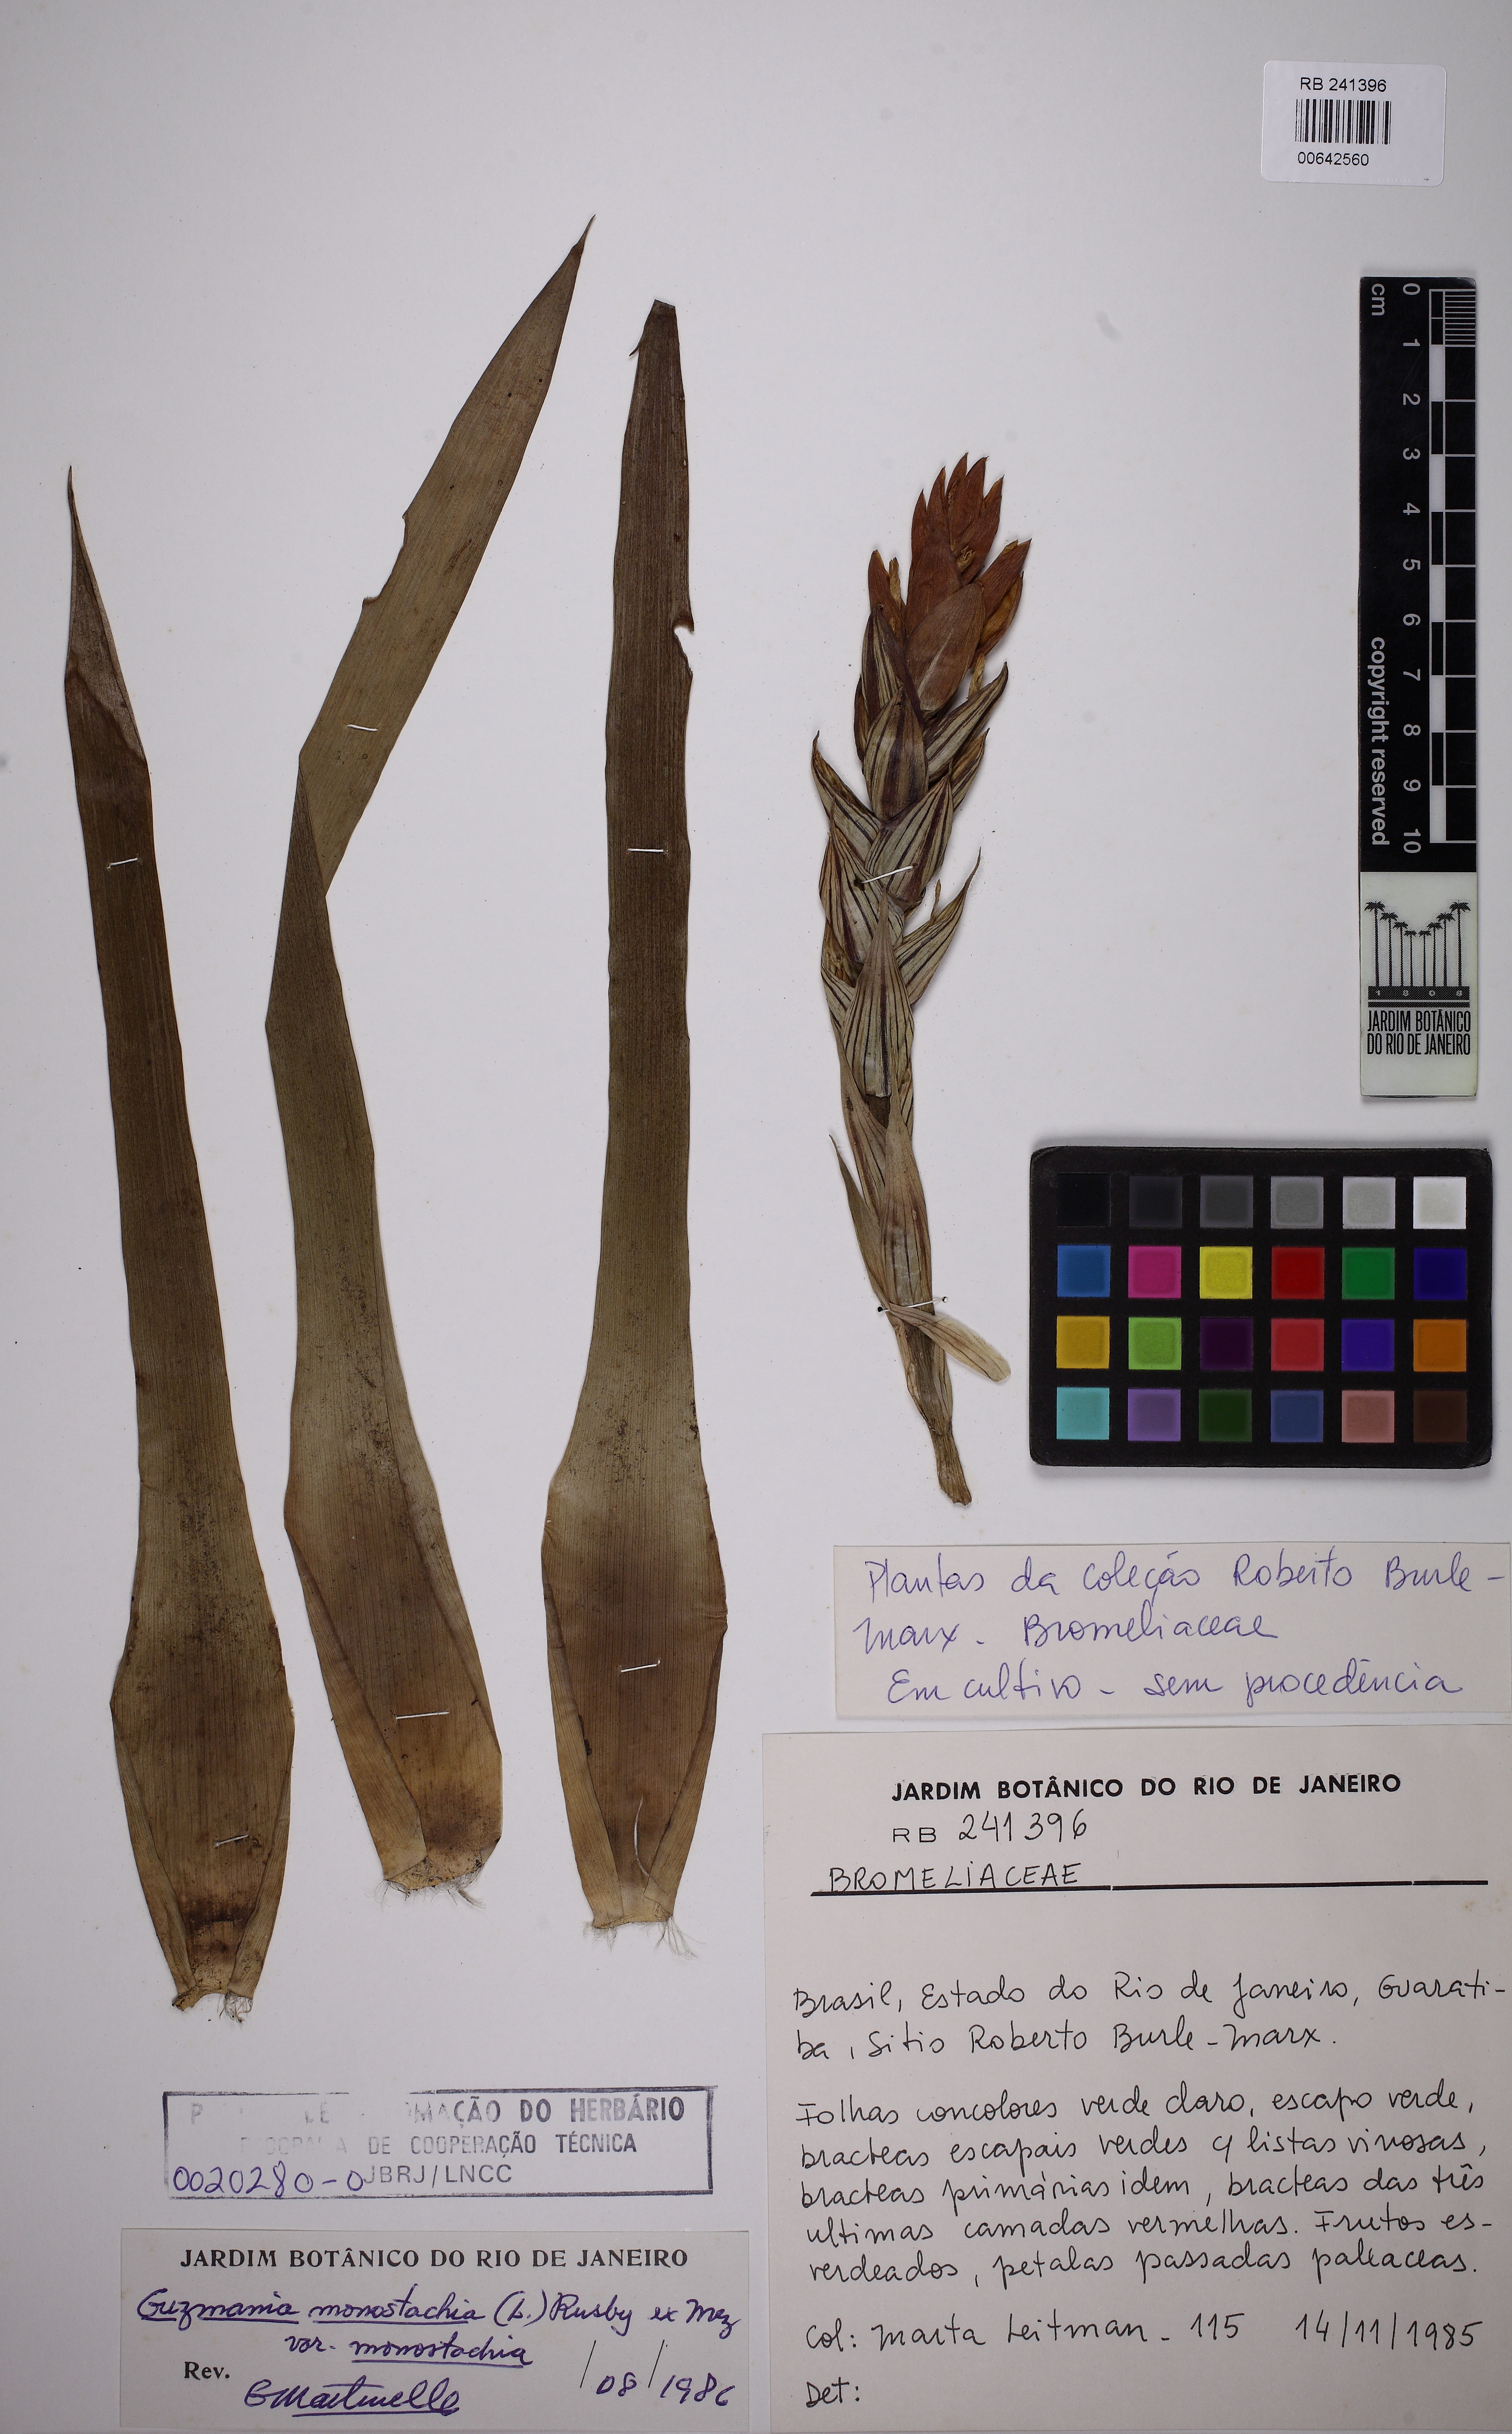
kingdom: Plantae
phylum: Tracheophyta
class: Liliopsida
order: Poales
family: Bromeliaceae
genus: Guzmania
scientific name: Guzmania monostachia
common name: West indian tufted airplant
